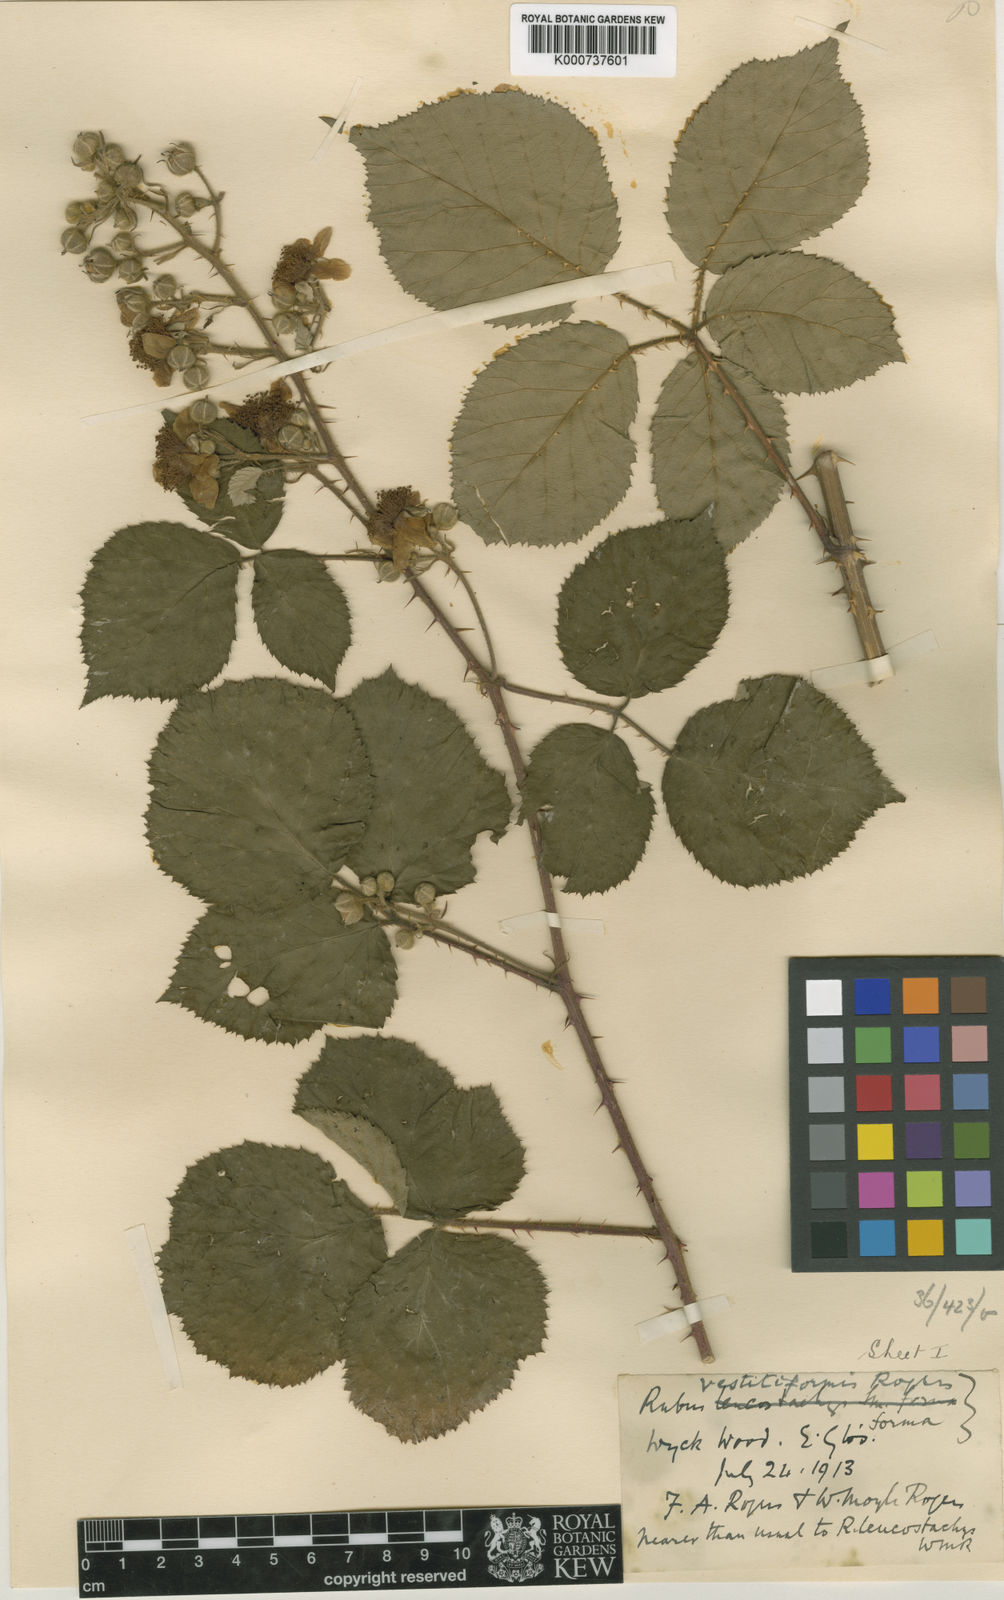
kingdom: Plantae
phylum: Tracheophyta
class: Magnoliopsida
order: Rosales
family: Rosaceae
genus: Rubus
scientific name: Rubus
